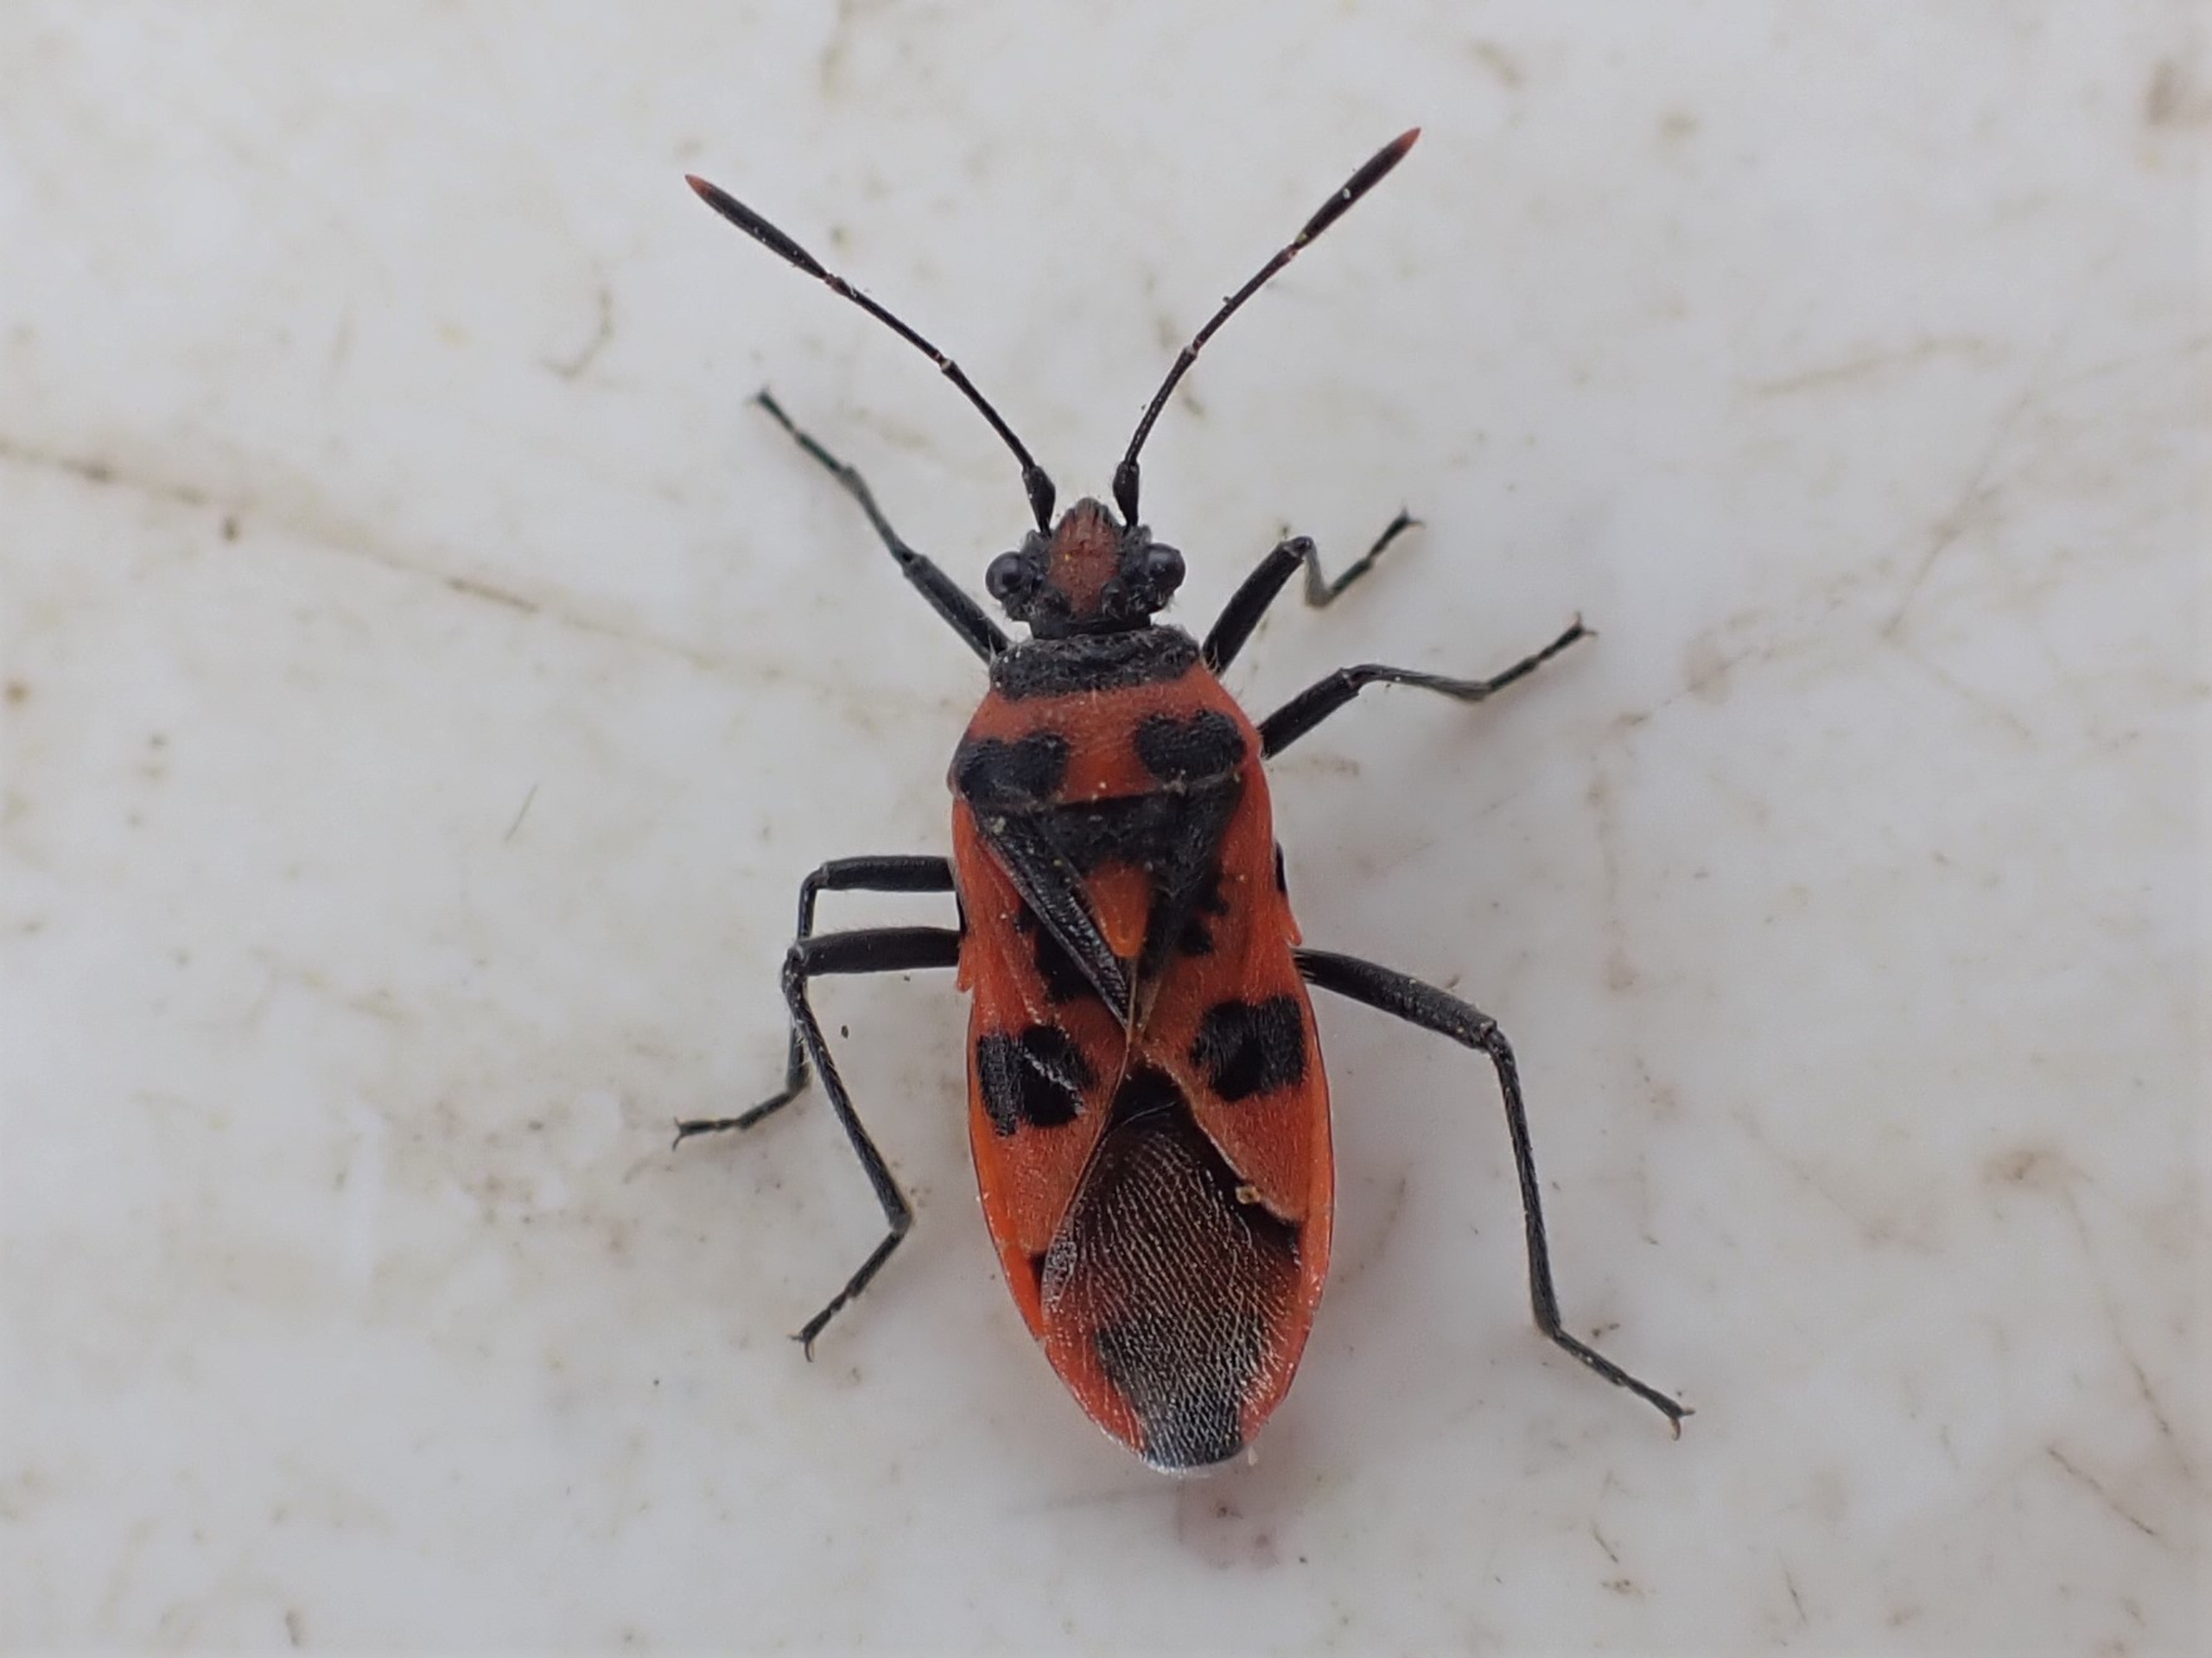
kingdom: Animalia
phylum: Arthropoda
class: Insecta
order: Hemiptera
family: Rhopalidae
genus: Corizus
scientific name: Corizus hyoscyami
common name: Rød kanttæge
